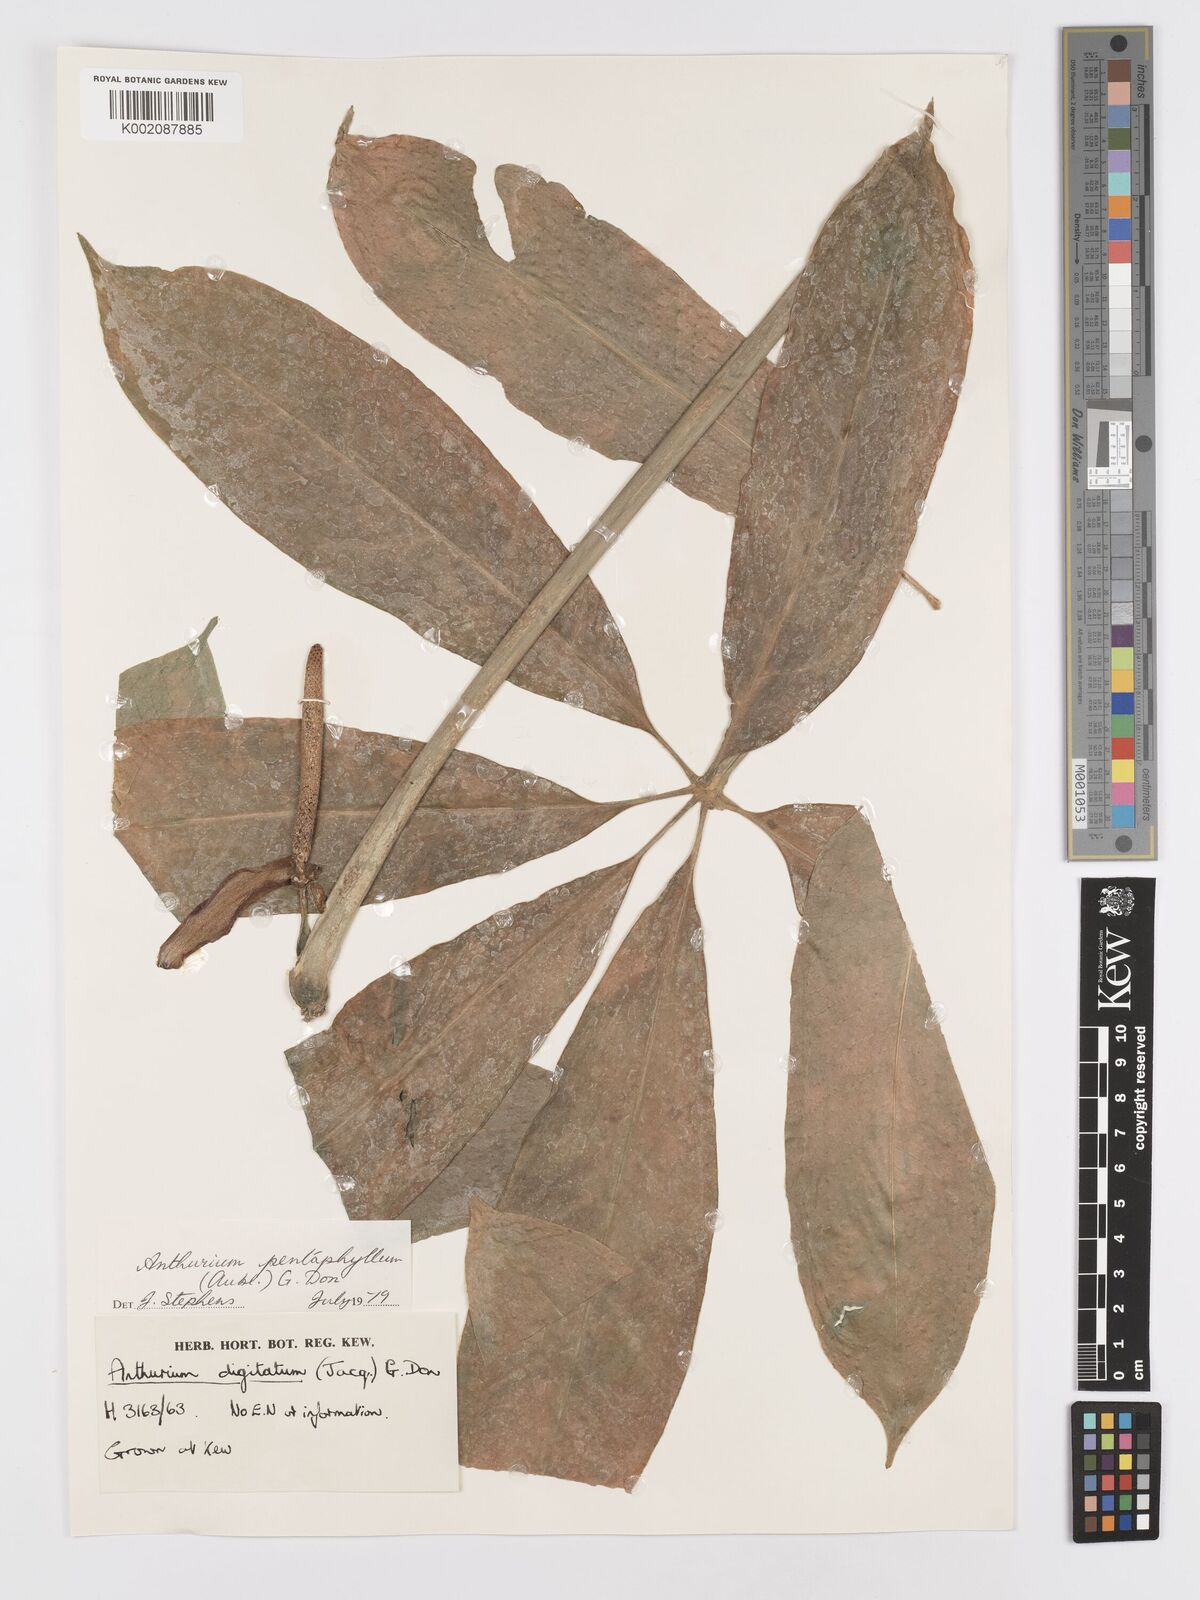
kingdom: Plantae
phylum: Tracheophyta
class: Liliopsida
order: Alismatales
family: Araceae
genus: Anthurium
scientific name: Anthurium pentaphyllum
